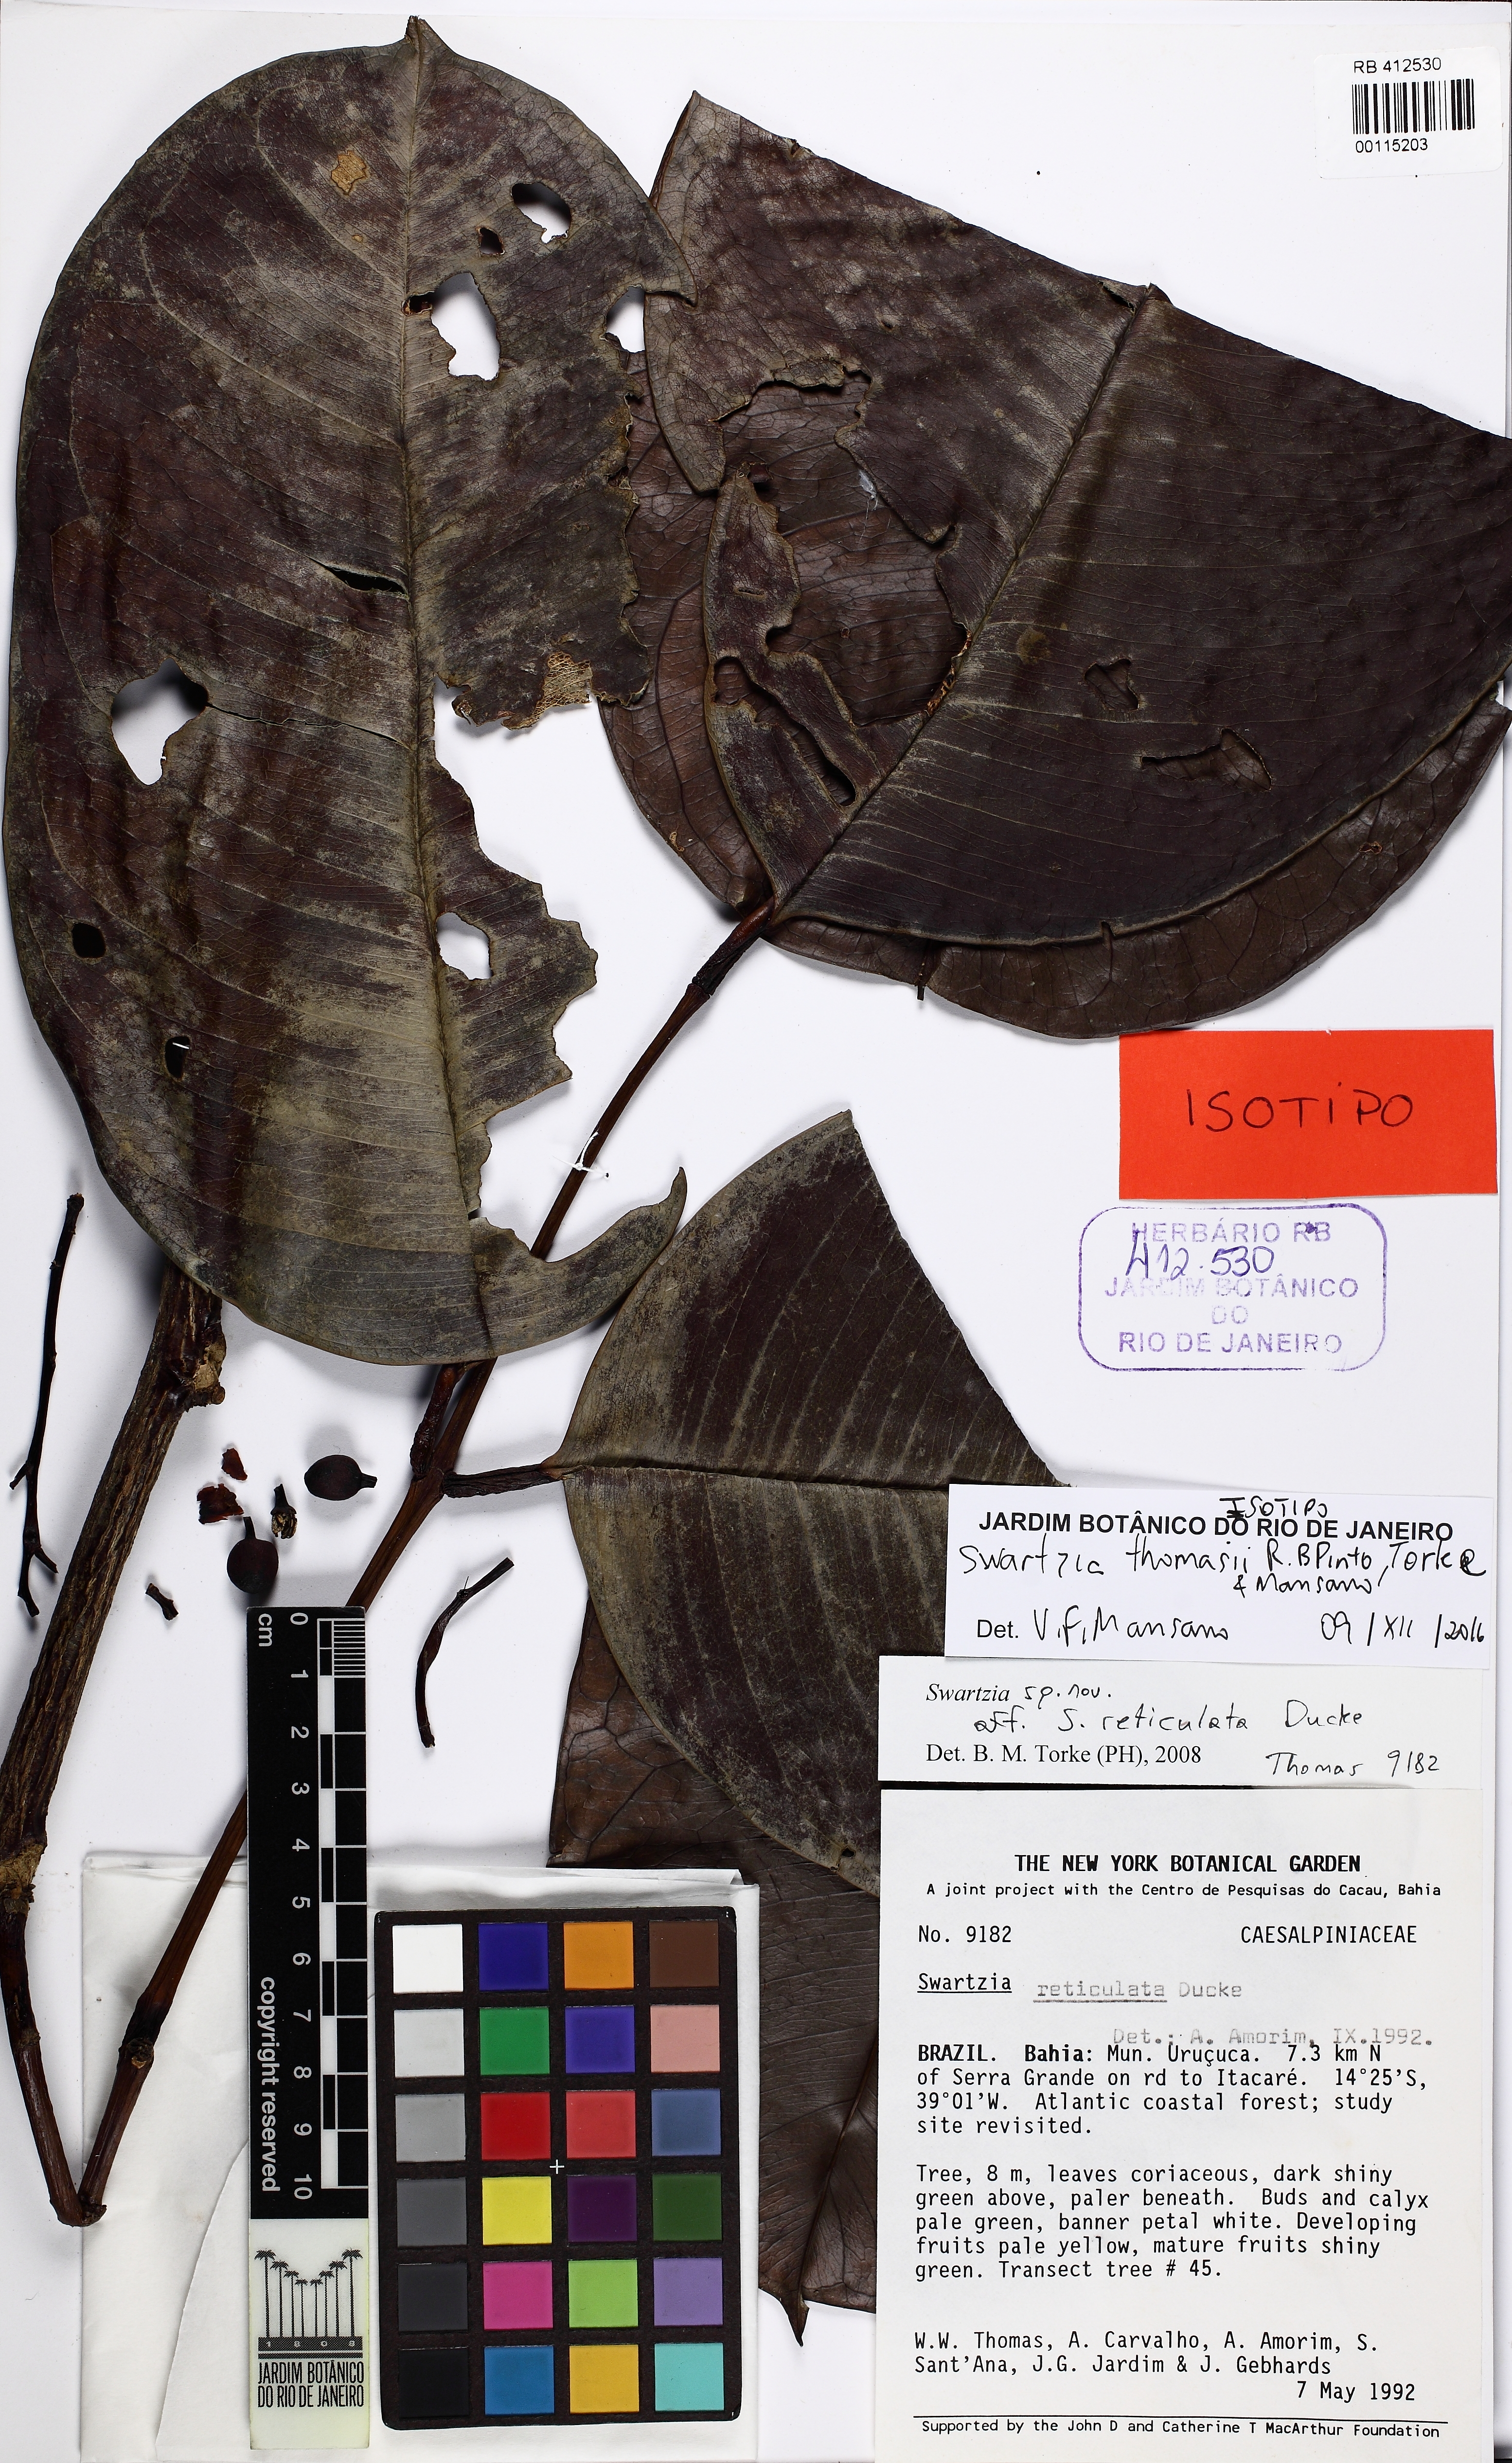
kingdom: Plantae
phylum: Tracheophyta
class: Magnoliopsida
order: Fabales
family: Fabaceae
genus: Swartzia
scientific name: Swartzia thomasii
